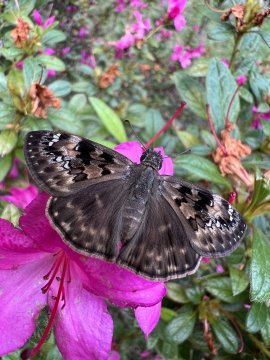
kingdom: Animalia
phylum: Arthropoda
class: Insecta
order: Lepidoptera
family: Hesperiidae
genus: Gesta
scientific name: Gesta
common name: Horace's Duskywing
